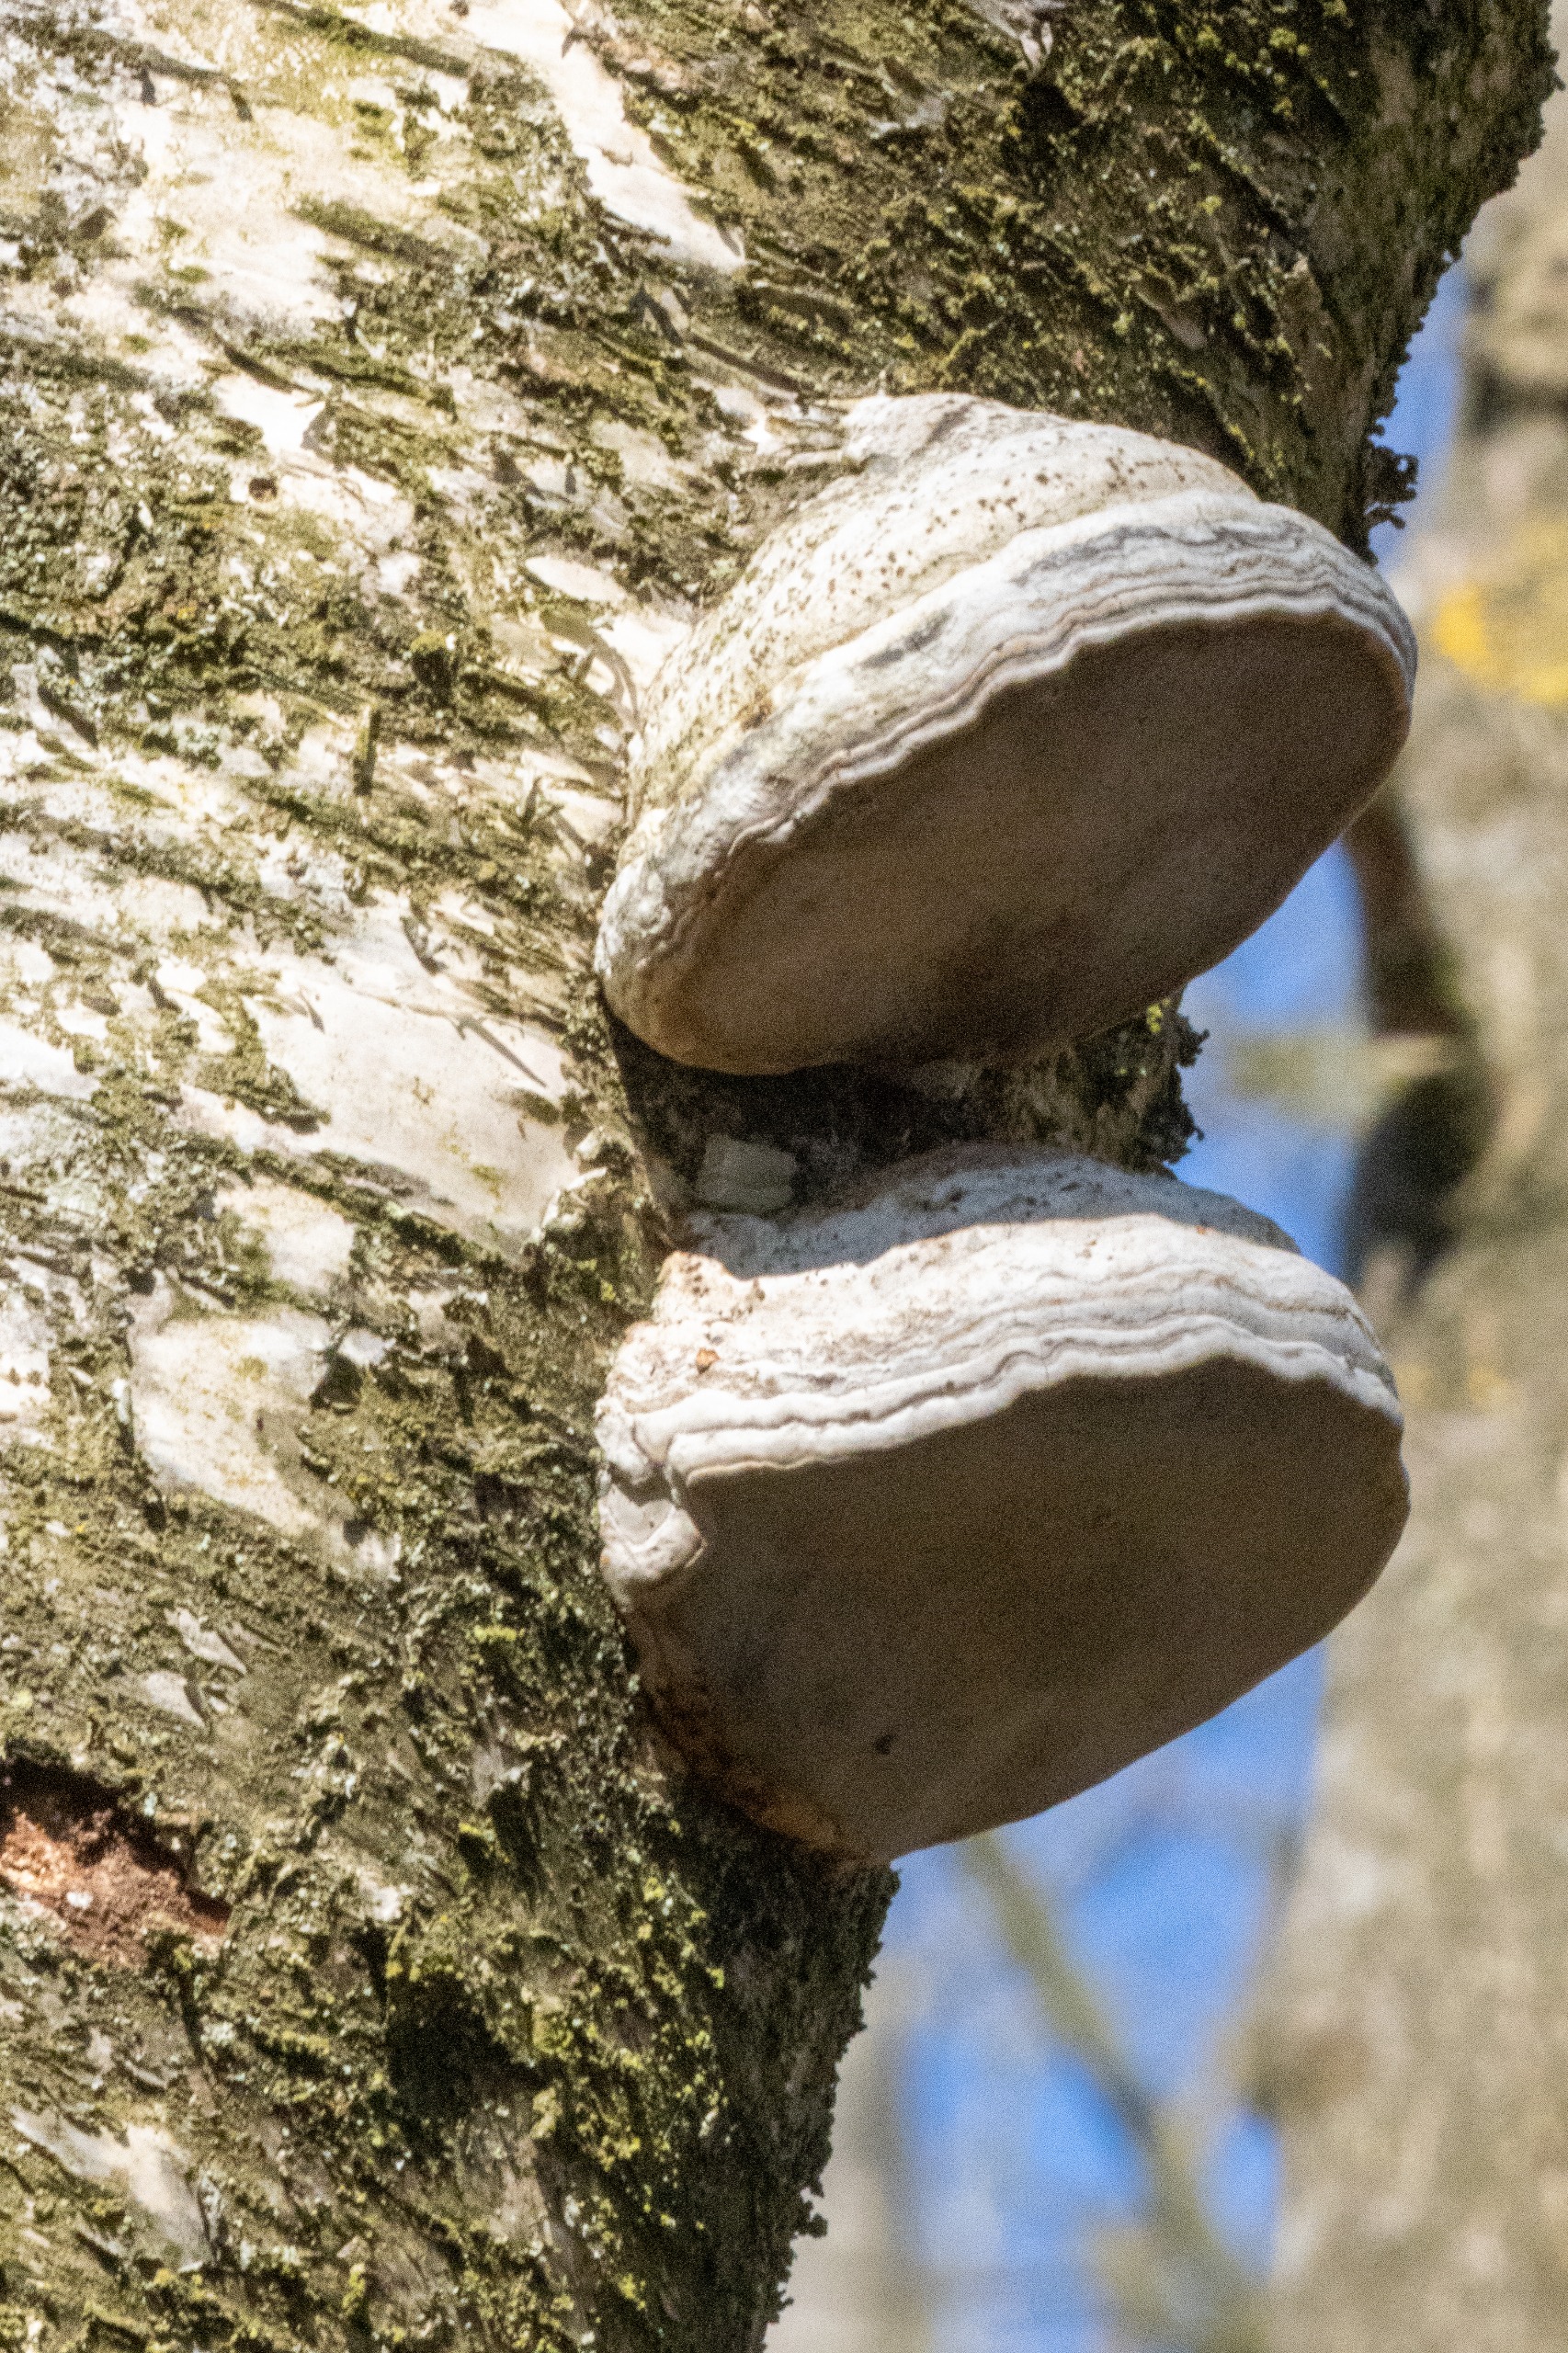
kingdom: Fungi
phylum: Basidiomycota
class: Agaricomycetes
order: Polyporales
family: Polyporaceae
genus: Fomes
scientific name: Fomes fomentarius
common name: Tøndersvamp
